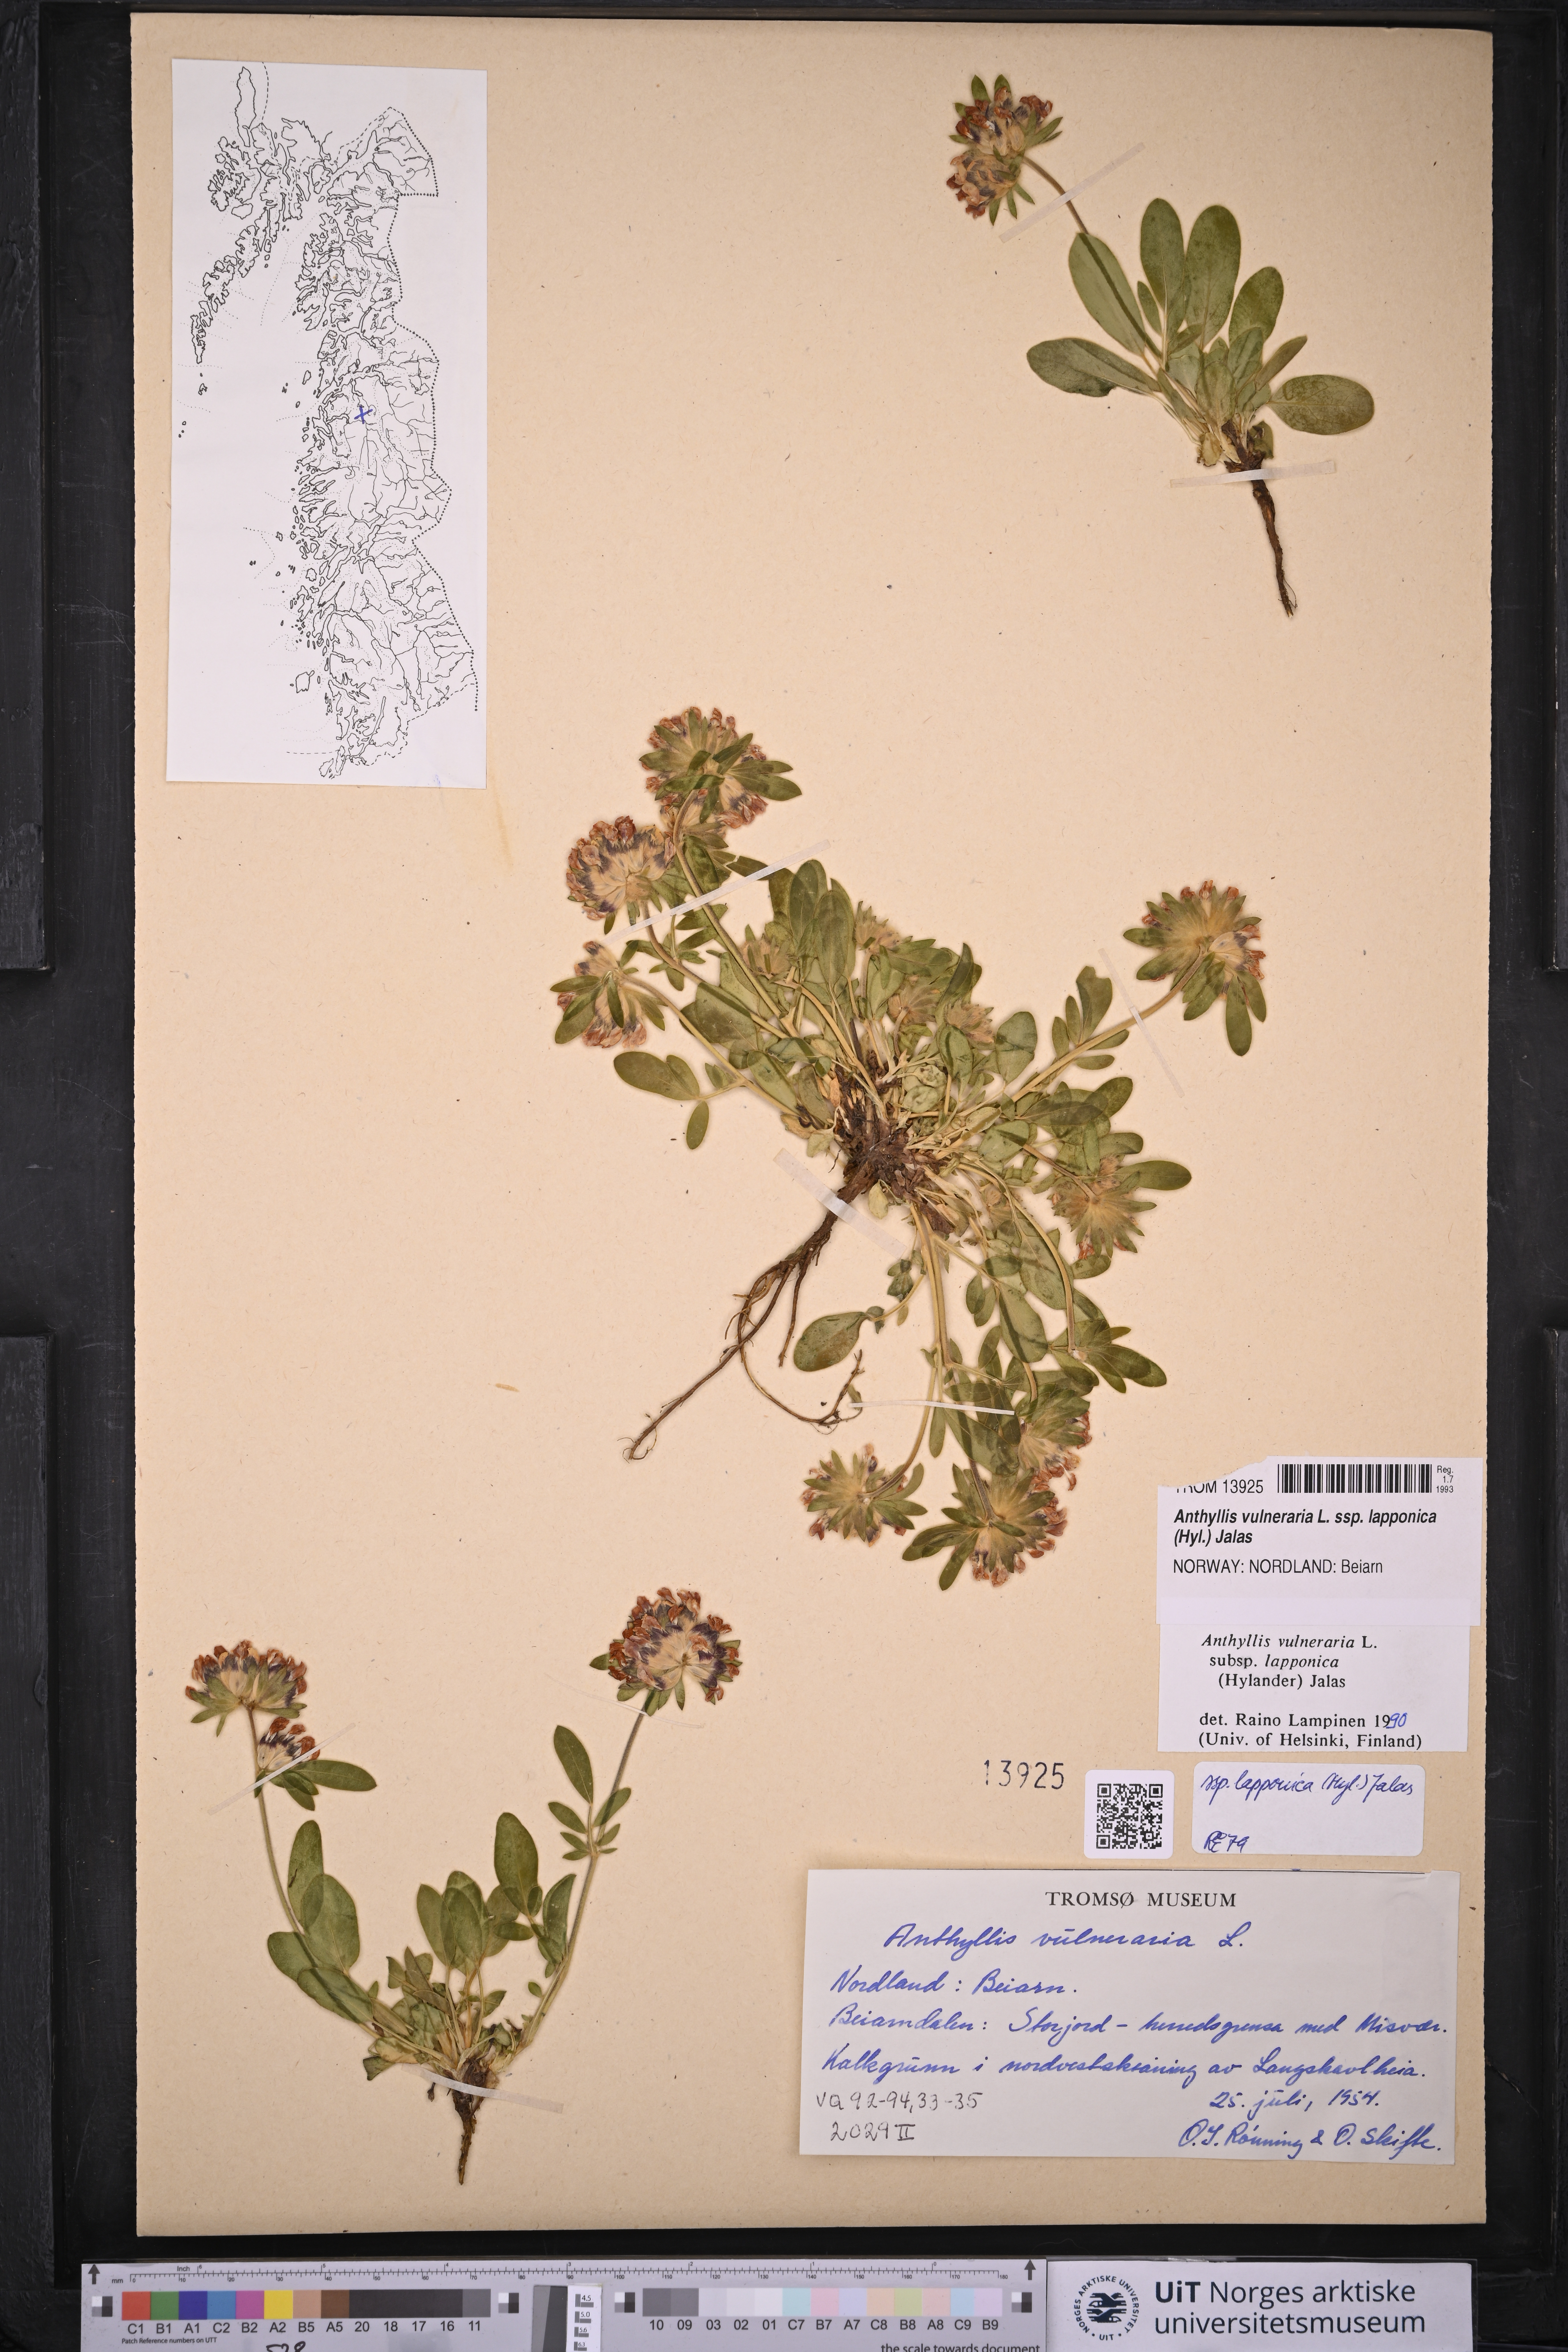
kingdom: Plantae
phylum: Tracheophyta
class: Magnoliopsida
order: Fabales
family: Fabaceae
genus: Anthyllis
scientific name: Anthyllis vulneraria
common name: Kidney vetch
